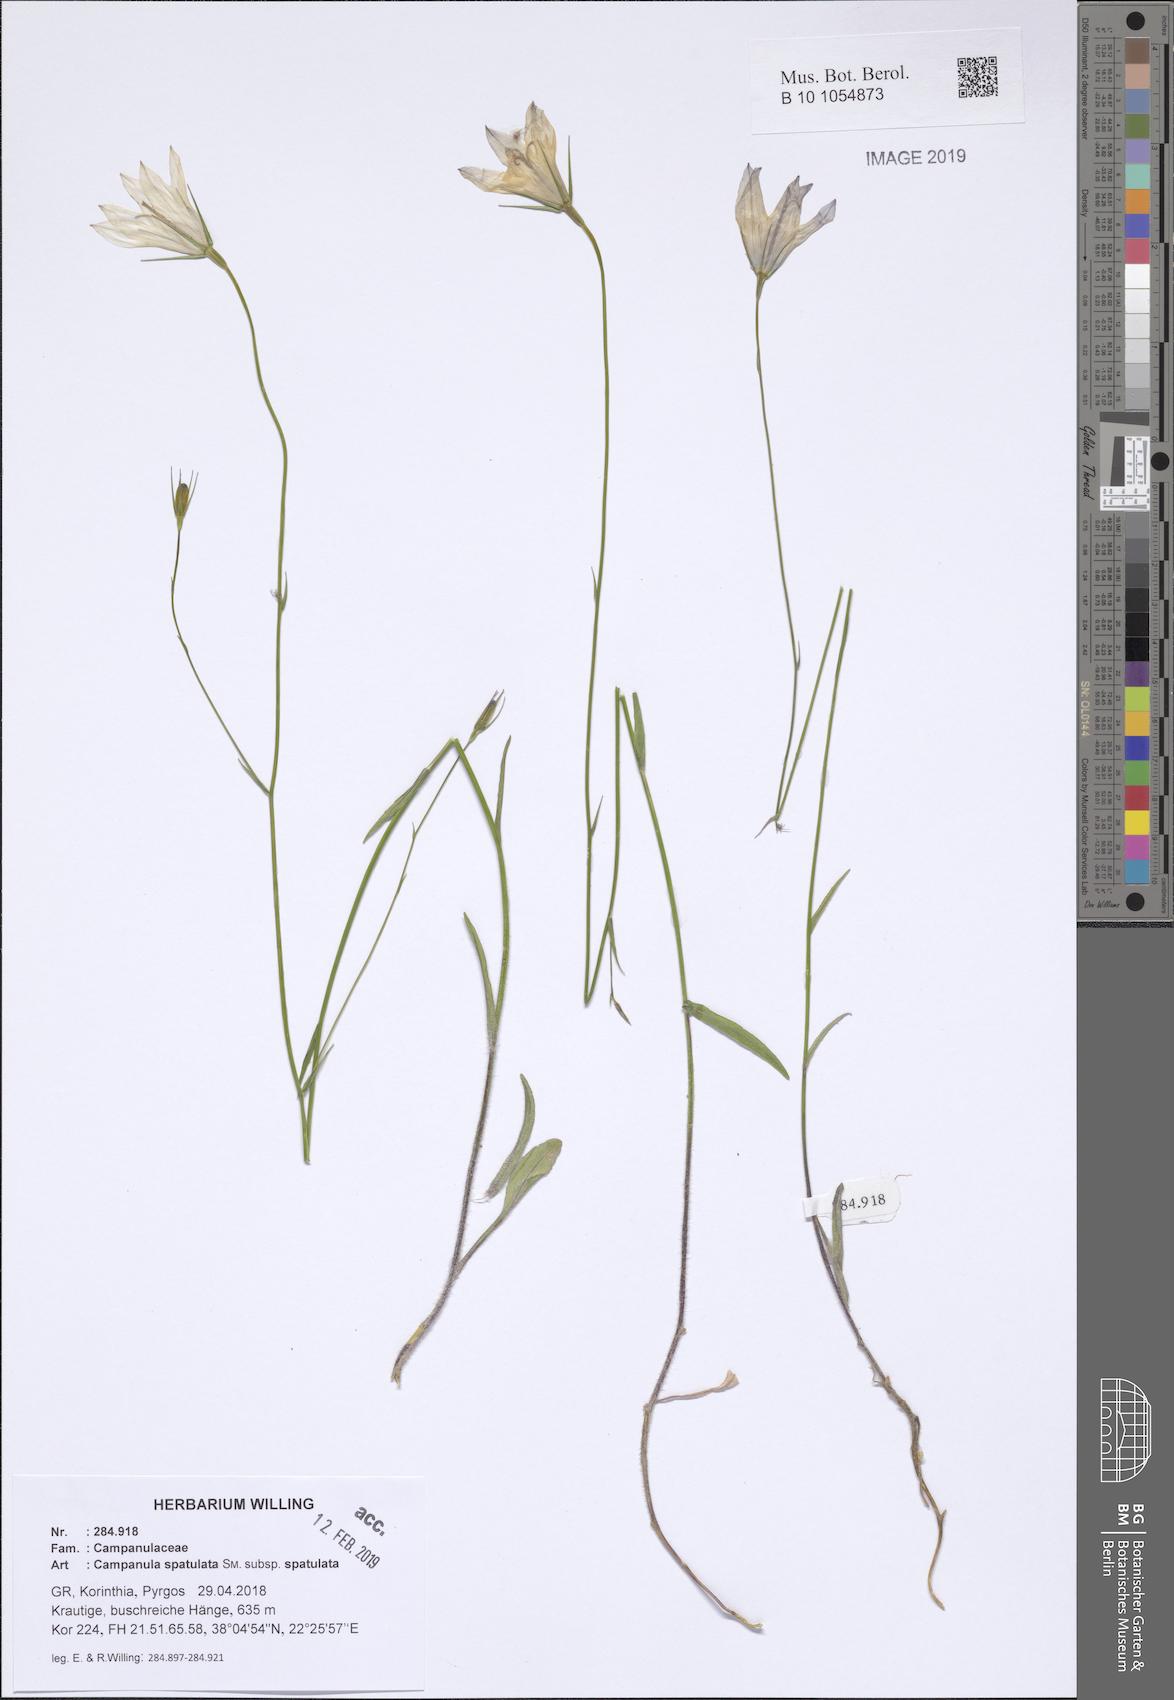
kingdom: Plantae
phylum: Tracheophyta
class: Magnoliopsida
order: Asterales
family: Campanulaceae
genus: Campanula
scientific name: Campanula spatulata
